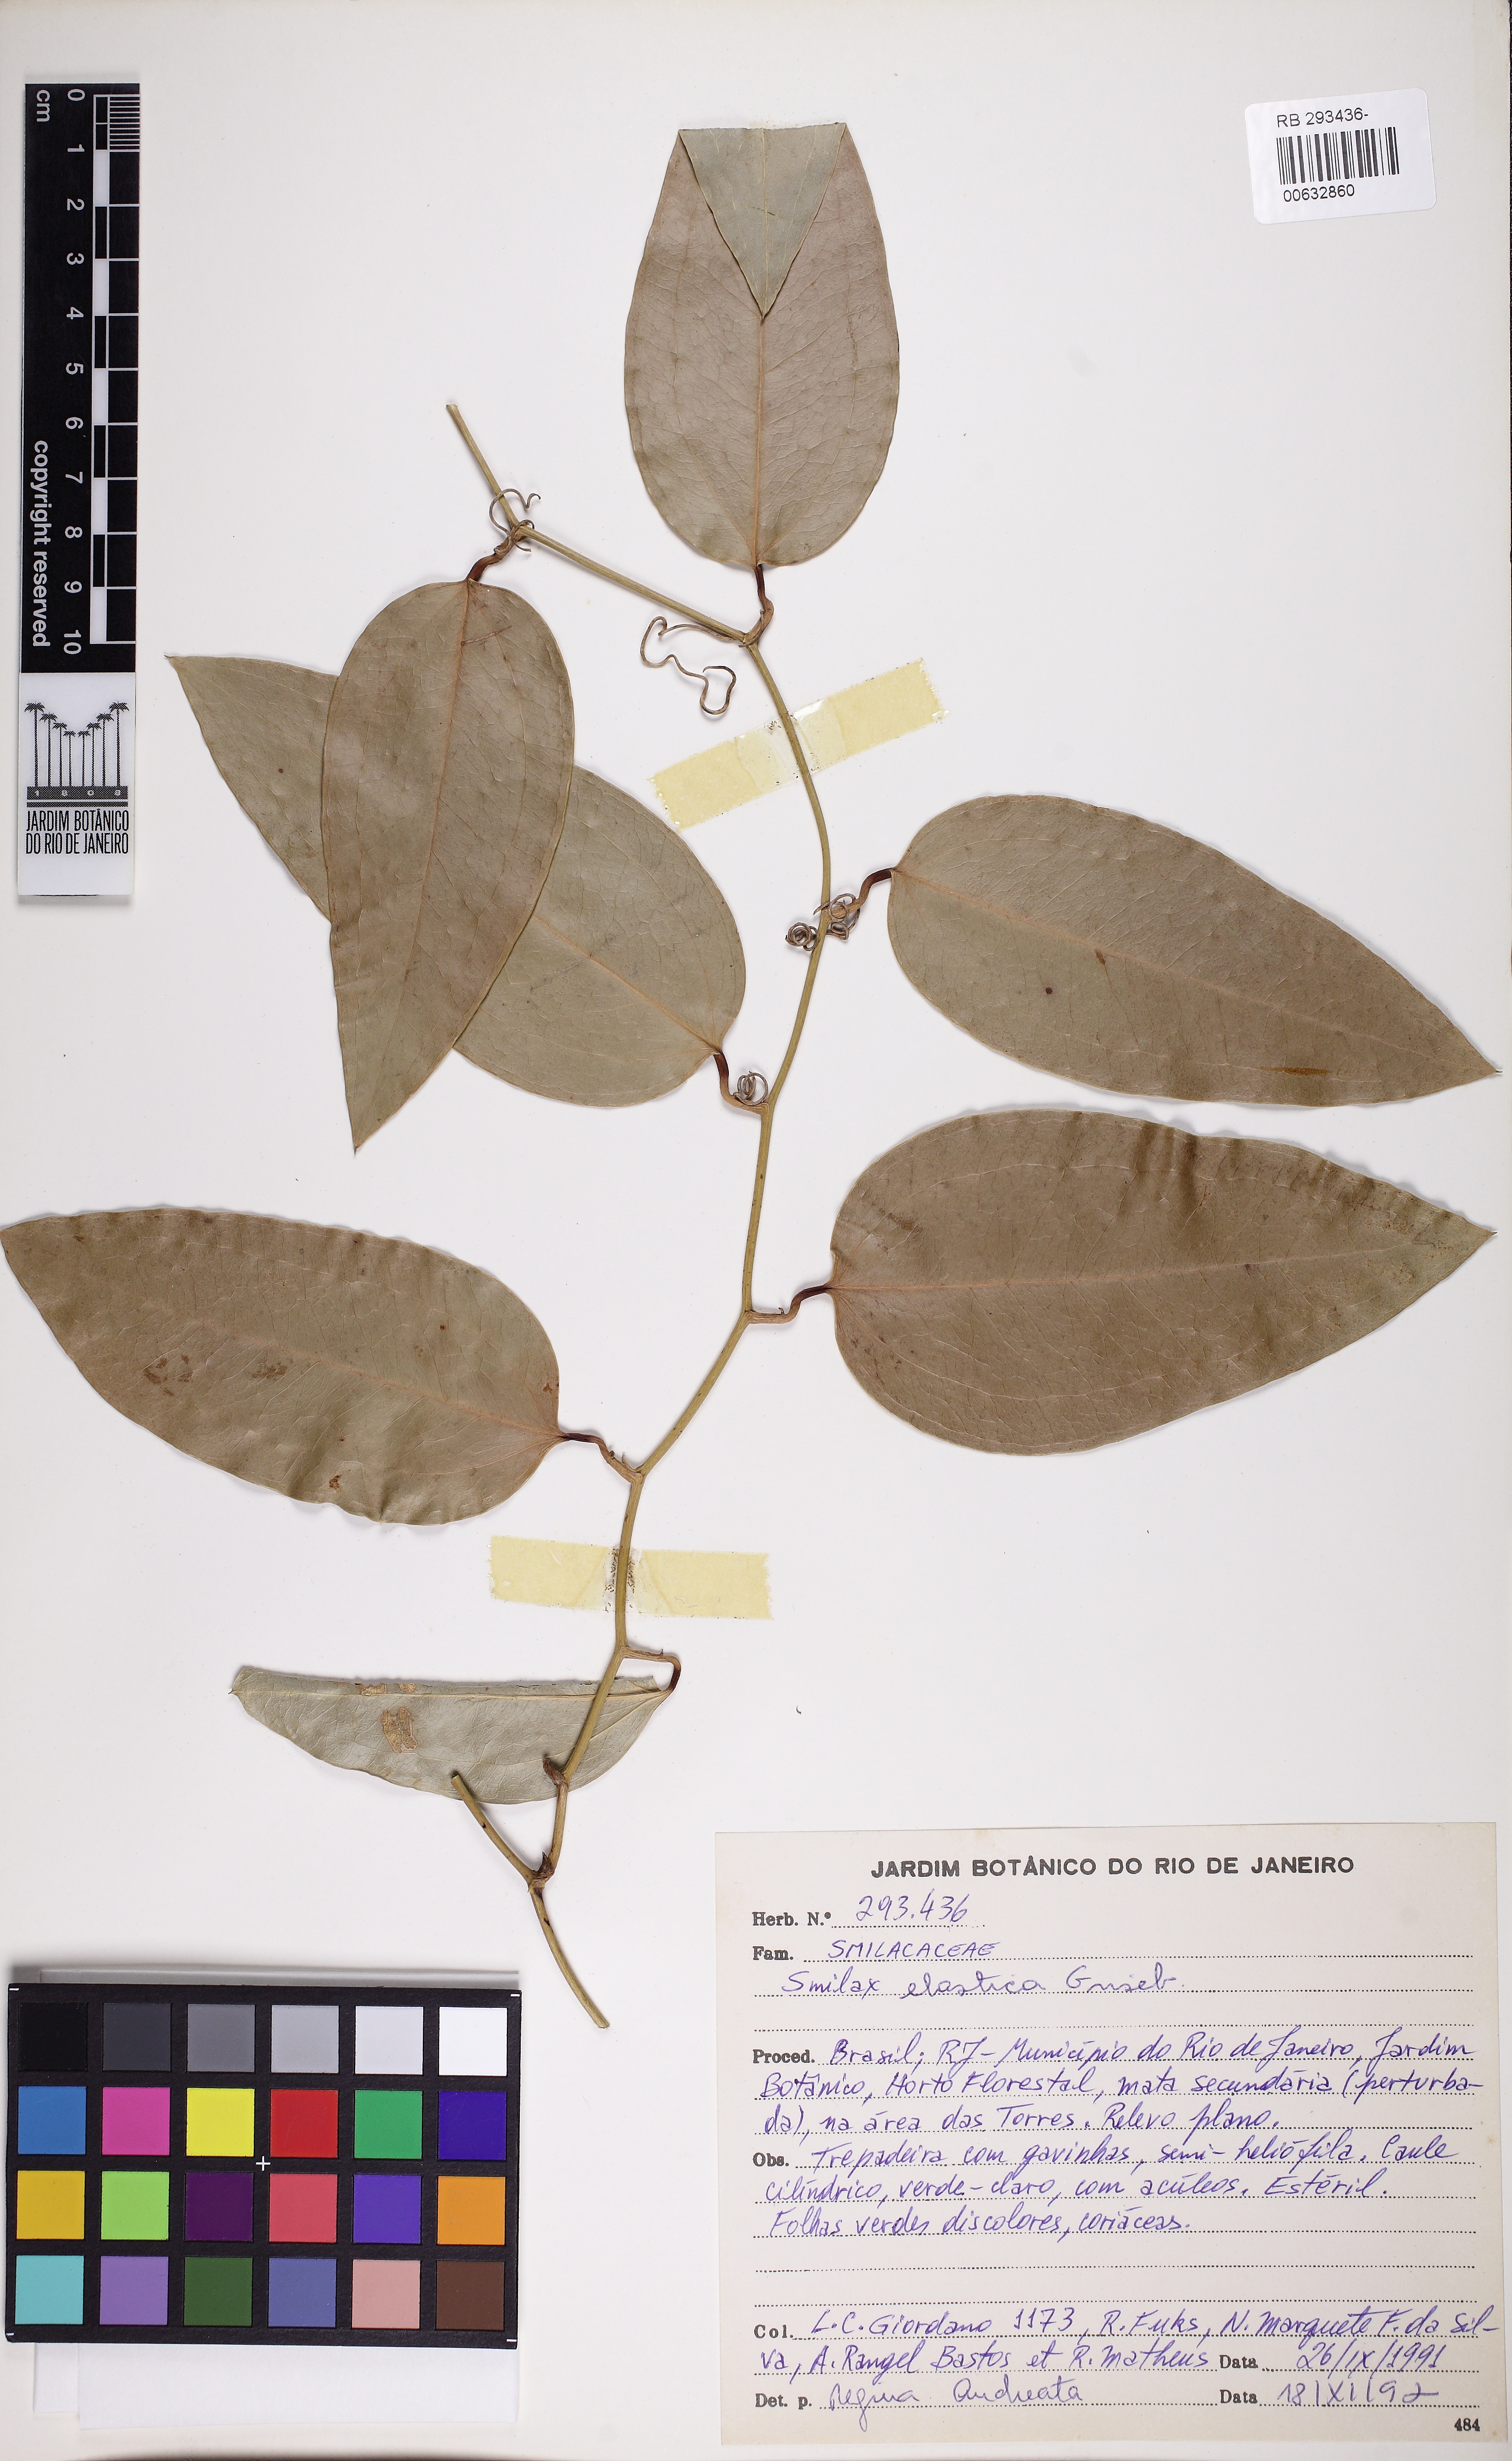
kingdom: Plantae
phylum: Tracheophyta
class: Liliopsida
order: Liliales
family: Smilacaceae
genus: Smilax
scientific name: Smilax elastica
